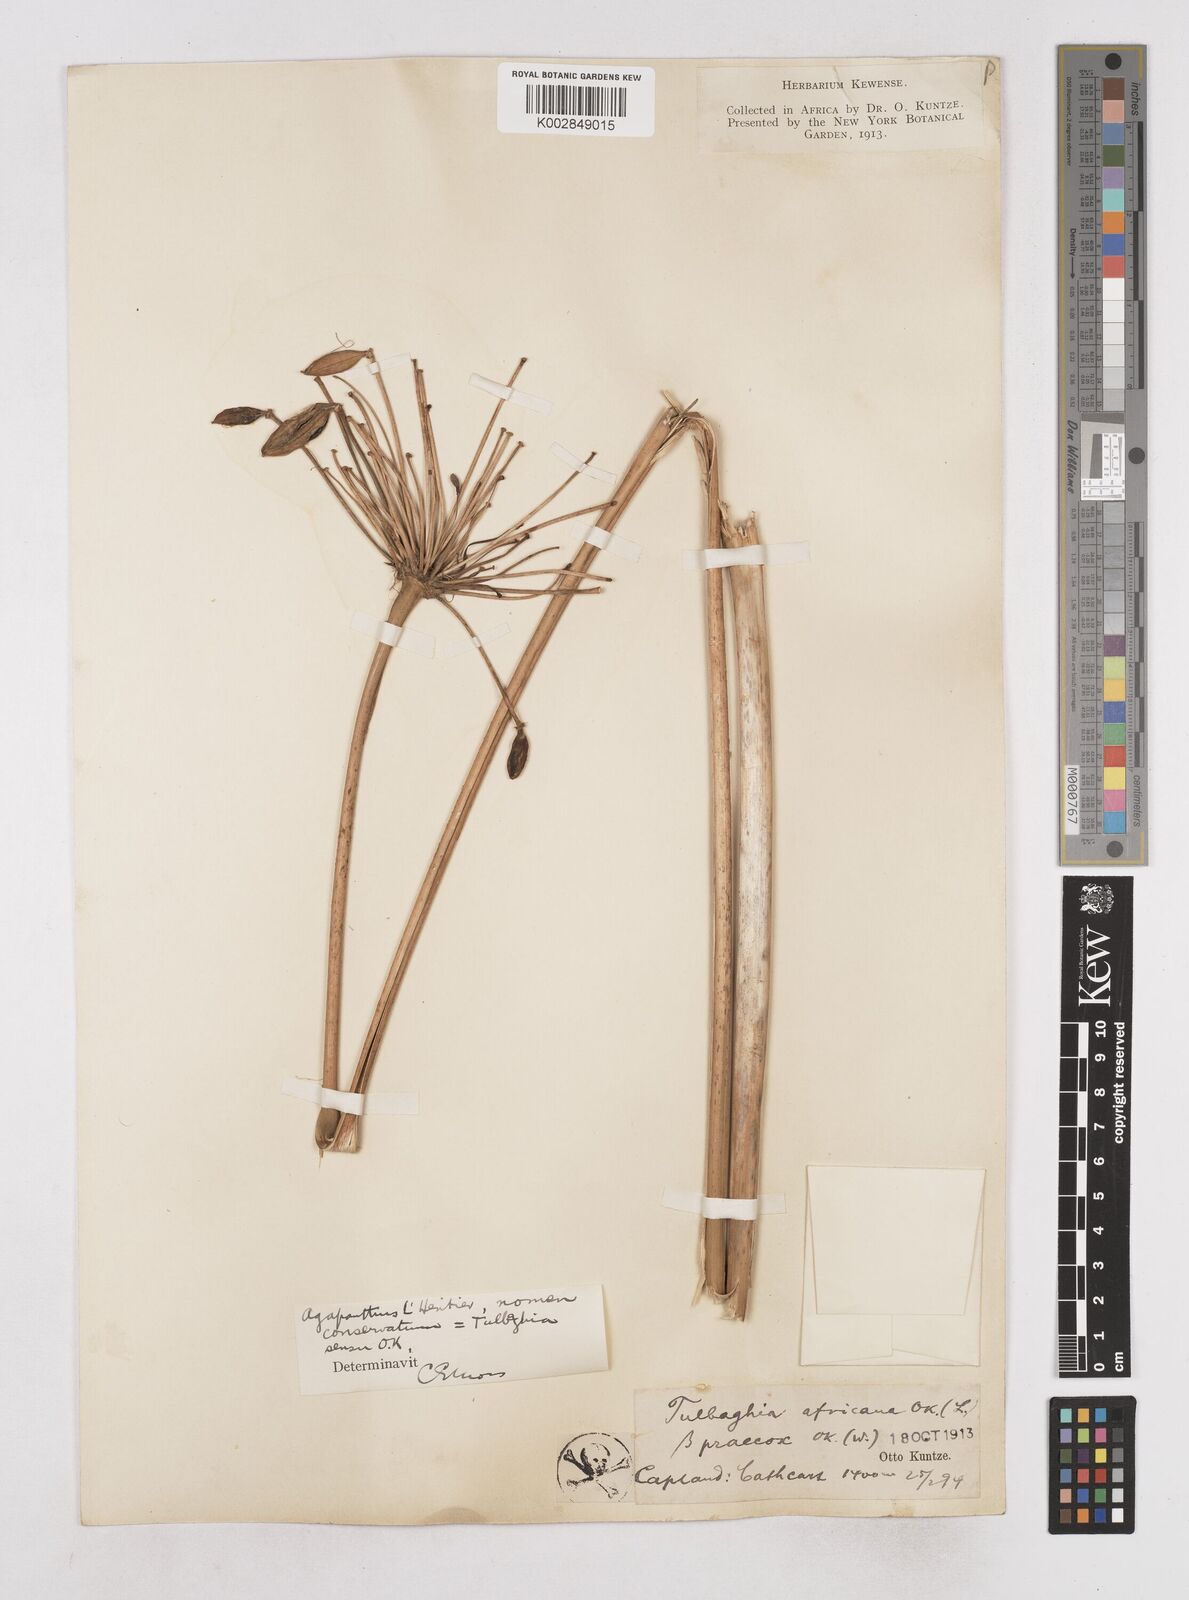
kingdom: Plantae
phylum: Tracheophyta
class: Liliopsida
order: Asparagales
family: Amaryllidaceae
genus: Agapanthus
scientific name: Agapanthus africanus
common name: Lily-of-the-nile
